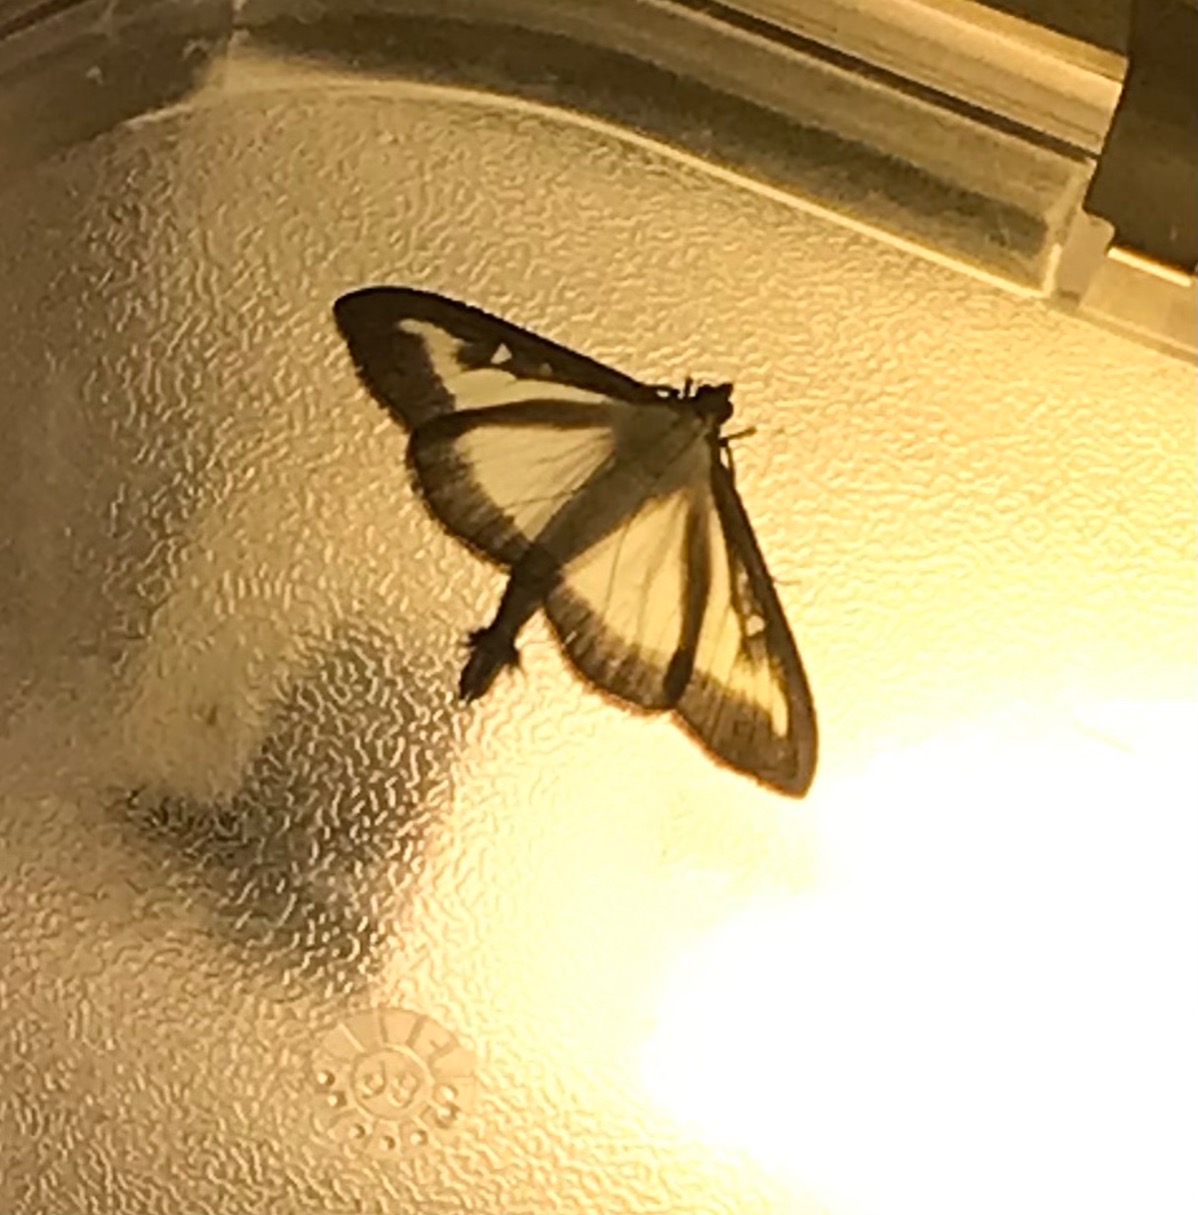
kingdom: Animalia
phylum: Arthropoda
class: Insecta
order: Lepidoptera
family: Crambidae
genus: Cydalima
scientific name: Cydalima perspectalis
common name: Buksbomhalvmøl
